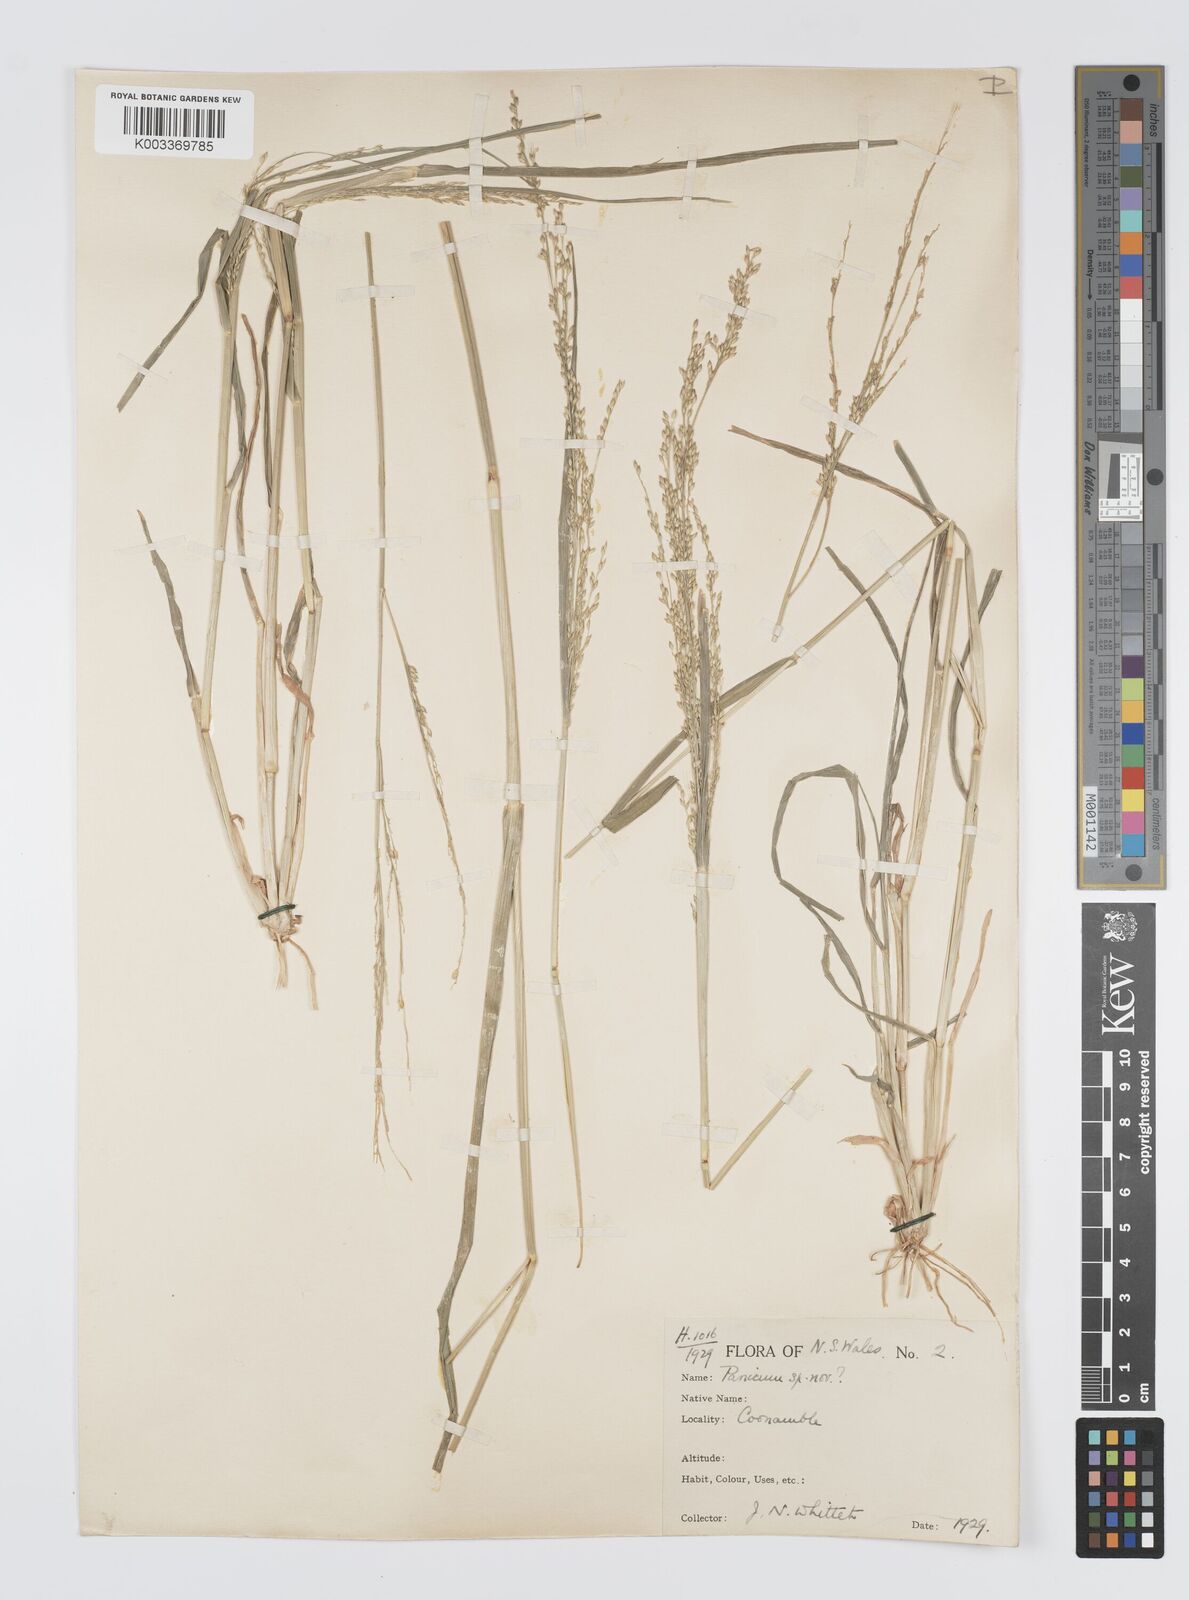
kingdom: Plantae
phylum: Tracheophyta
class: Liliopsida
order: Poales
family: Poaceae
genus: Panicum
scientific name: Panicum laevinode
